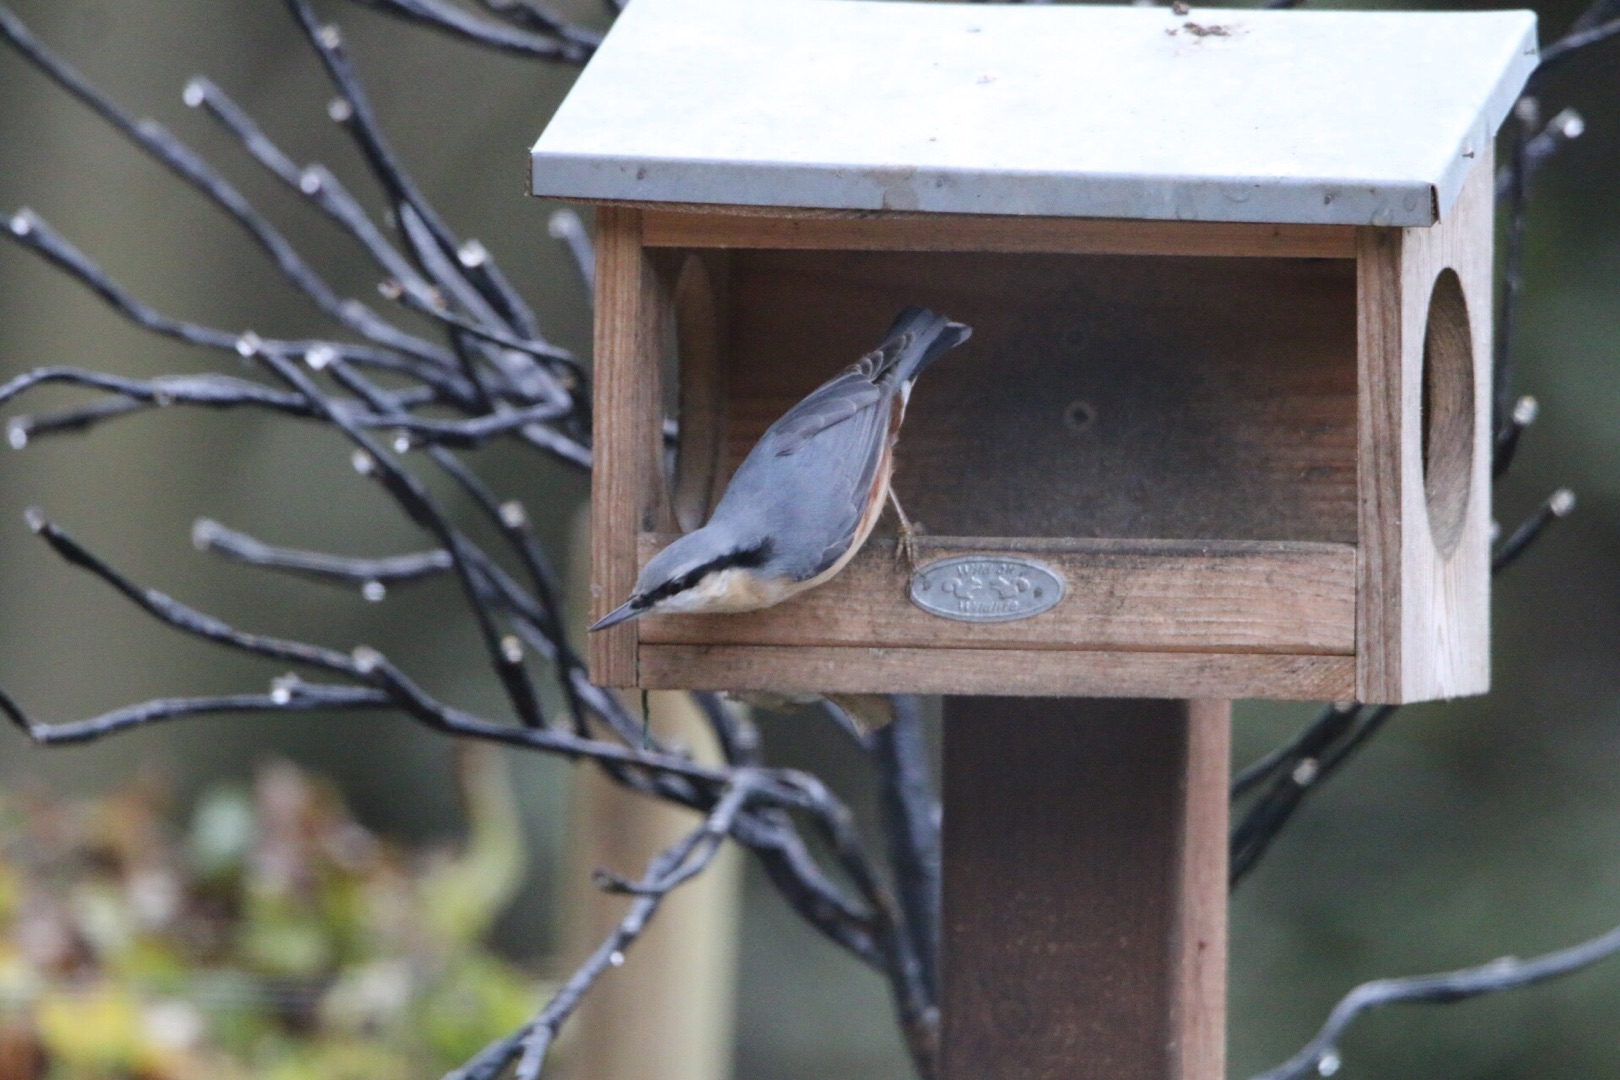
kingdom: Animalia
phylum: Chordata
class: Aves
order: Passeriformes
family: Sittidae
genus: Sitta
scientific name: Sitta europaea
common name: Spætmejse
